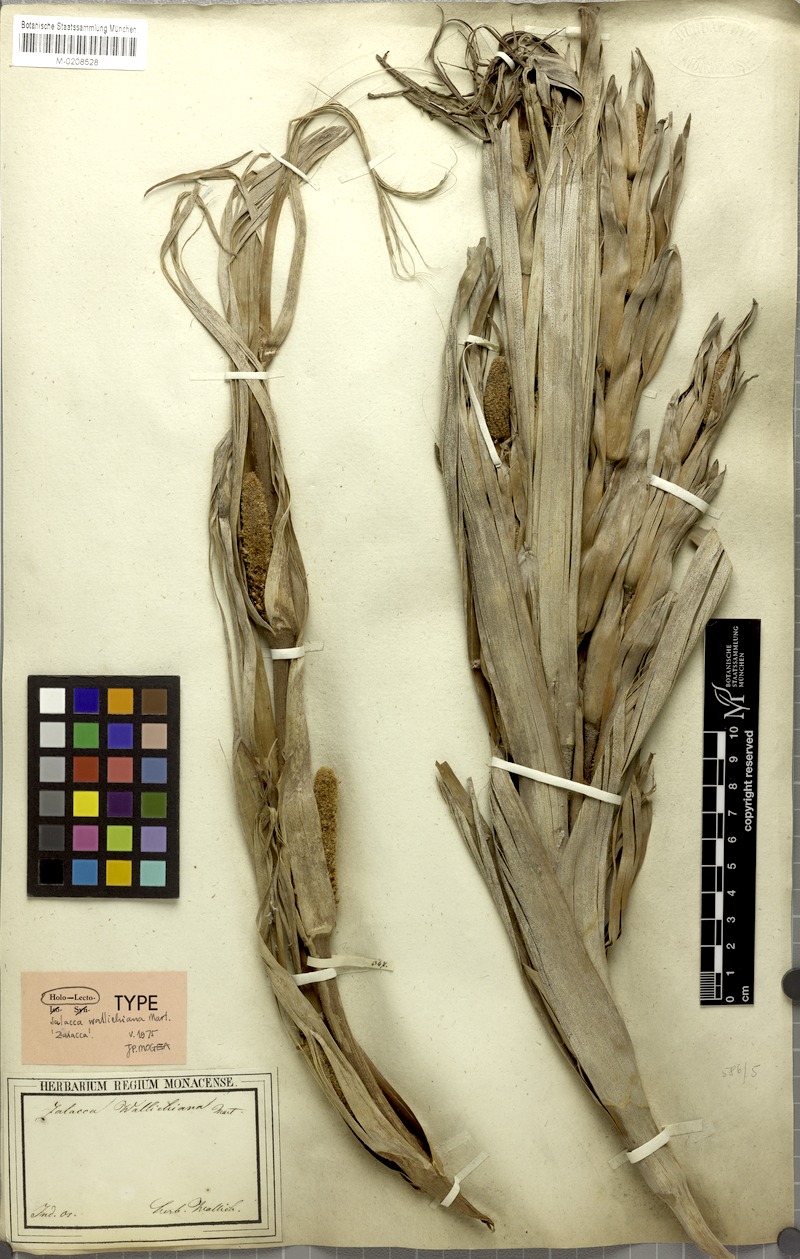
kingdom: Plantae
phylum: Tracheophyta
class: Liliopsida
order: Arecales
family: Arecaceae
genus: Salacca
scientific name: Salacca wallichiana
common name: Rakum palm
